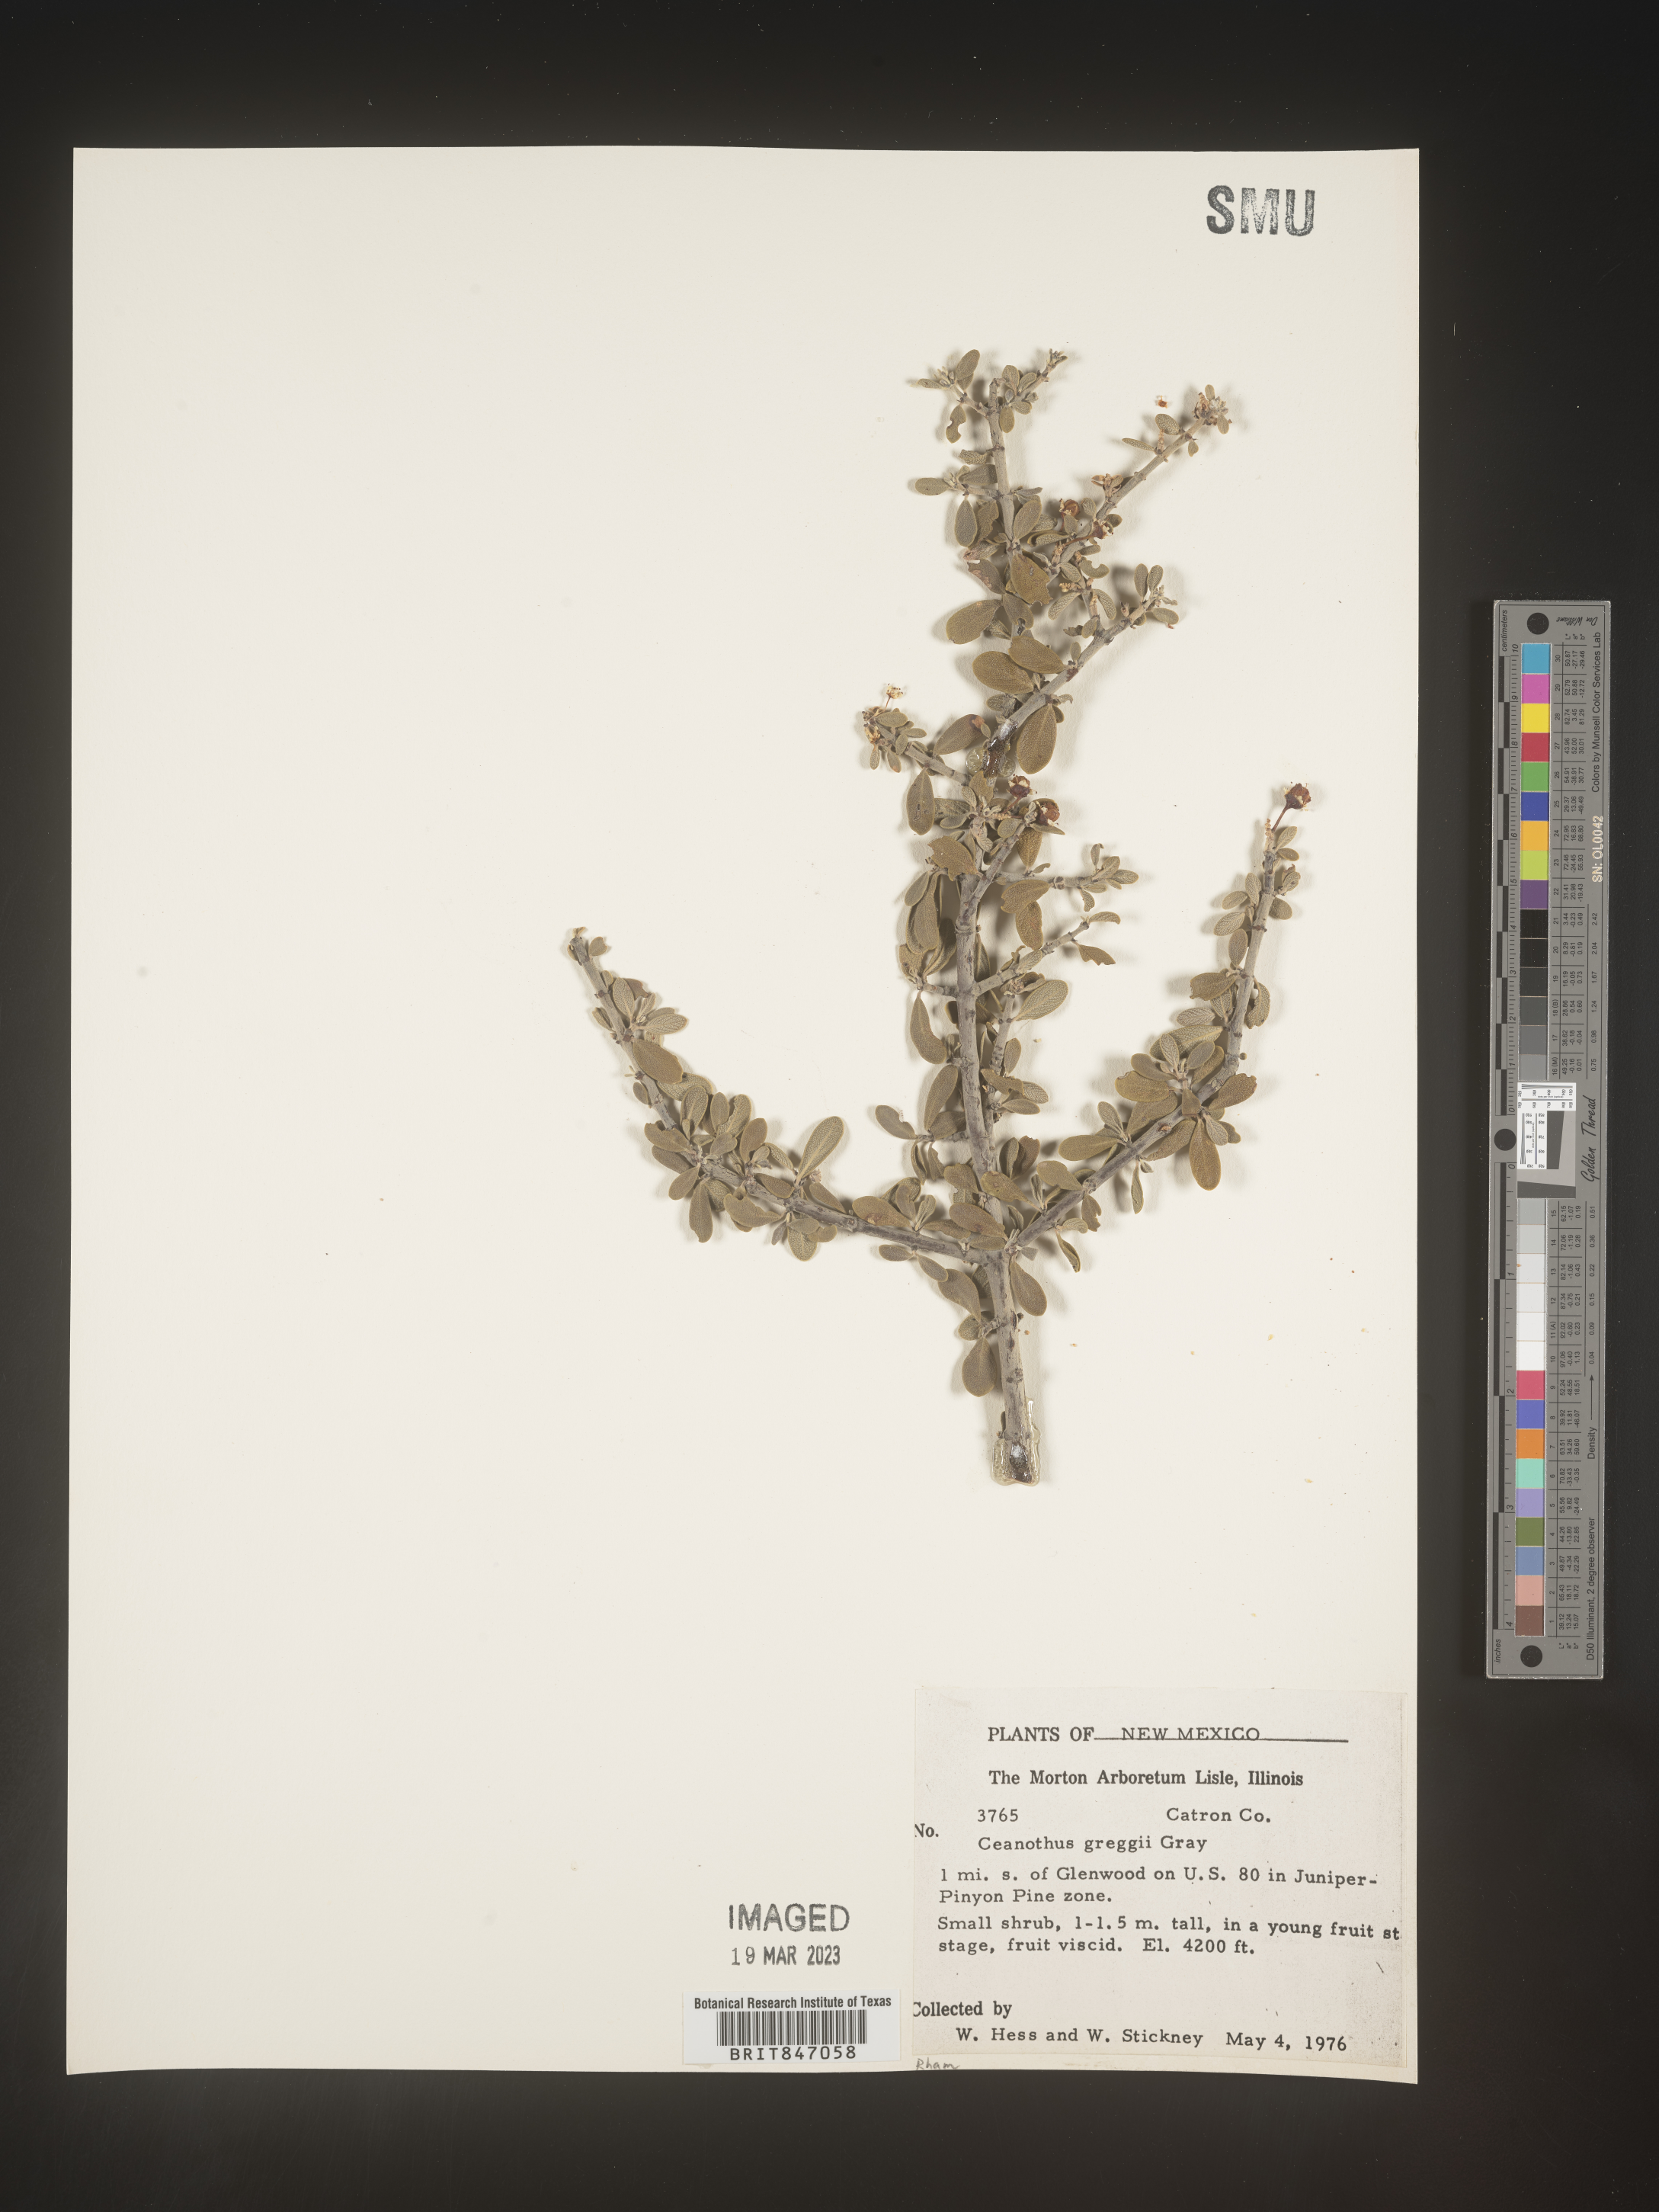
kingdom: Plantae
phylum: Tracheophyta
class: Magnoliopsida
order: Rosales
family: Rhamnaceae
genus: Ceanothus
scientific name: Ceanothus
